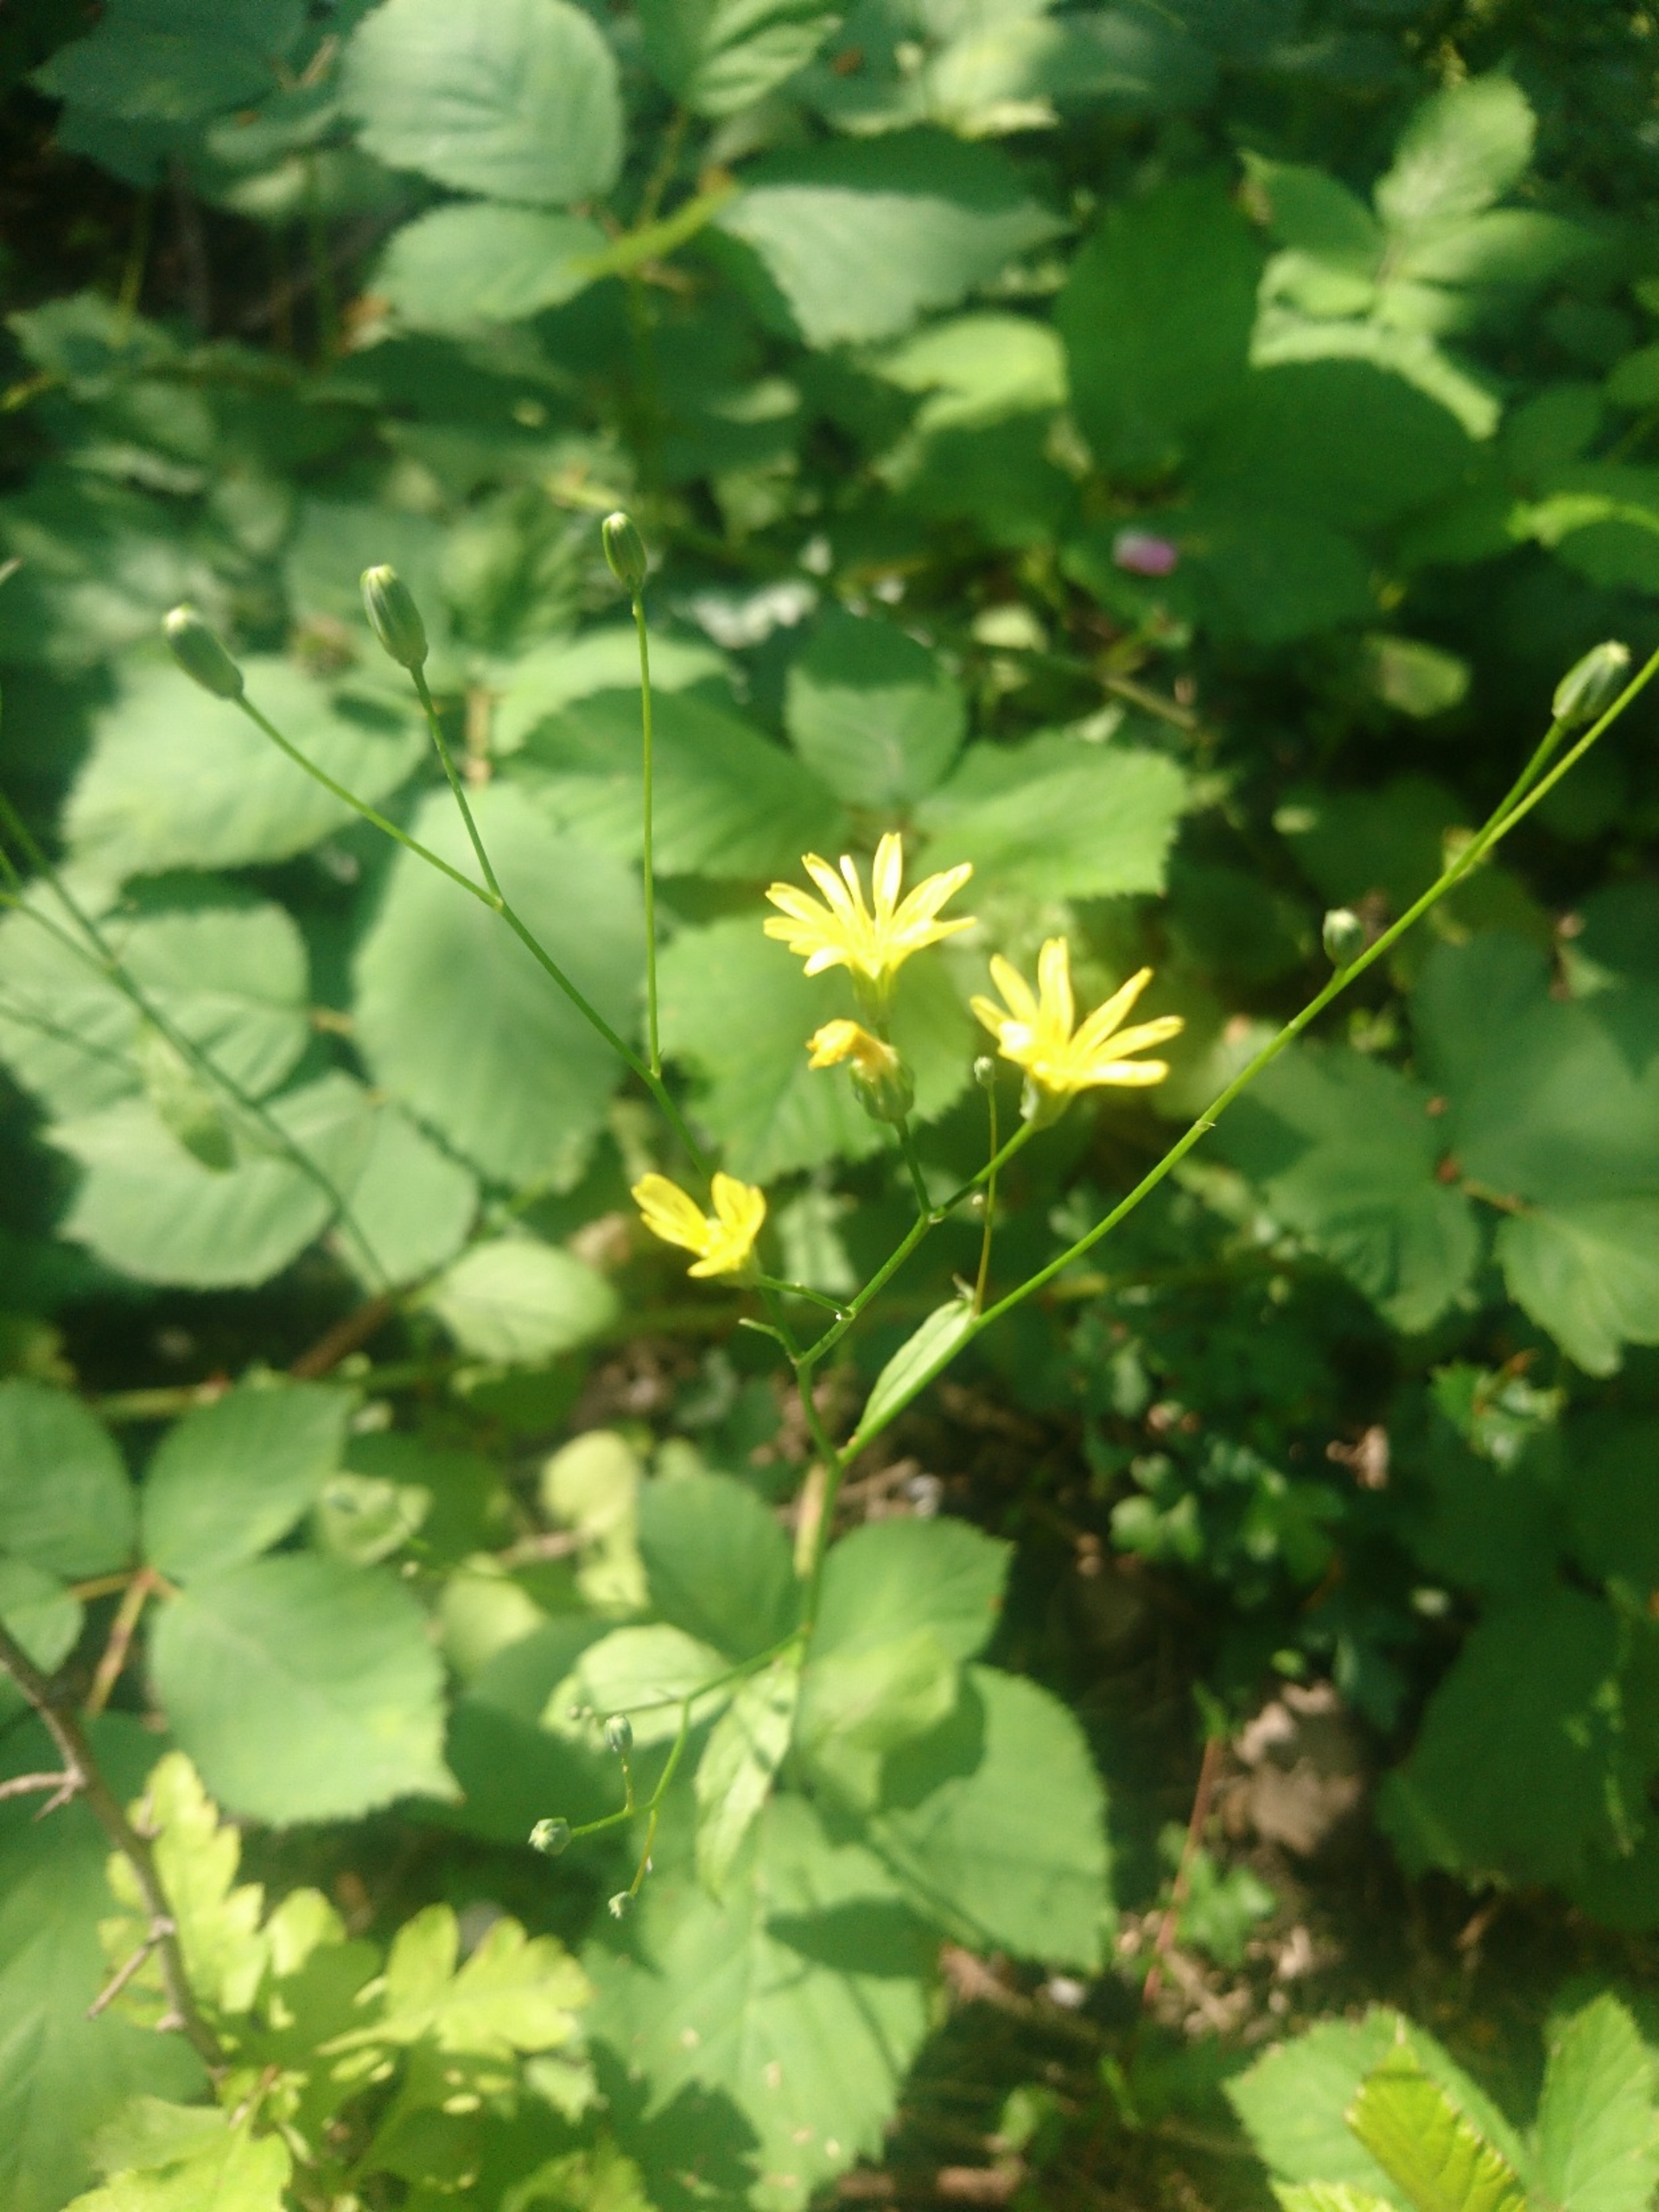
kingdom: Plantae
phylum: Tracheophyta
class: Magnoliopsida
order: Asterales
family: Asteraceae
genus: Lapsana
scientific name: Lapsana communis
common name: Haremad
